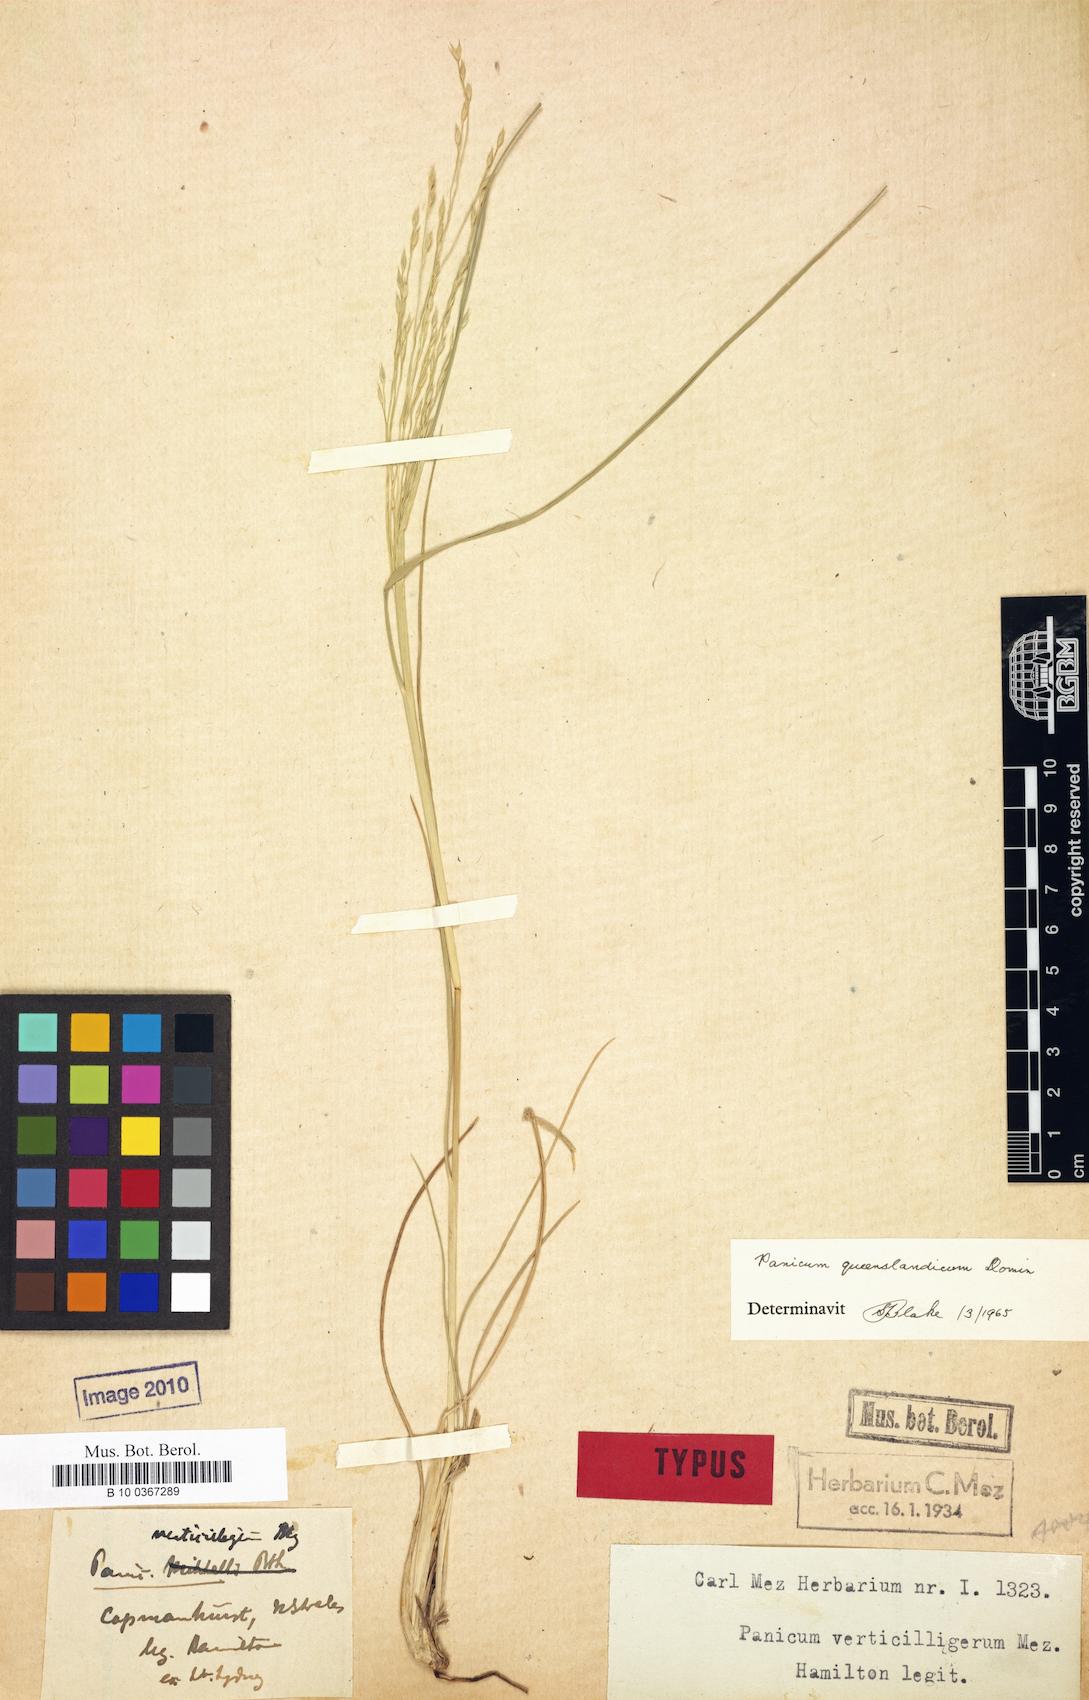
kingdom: Plantae
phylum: Tracheophyta
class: Liliopsida
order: Poales
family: Poaceae
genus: Panicum
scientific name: Panicum queenslandicum
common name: Yabila grass
